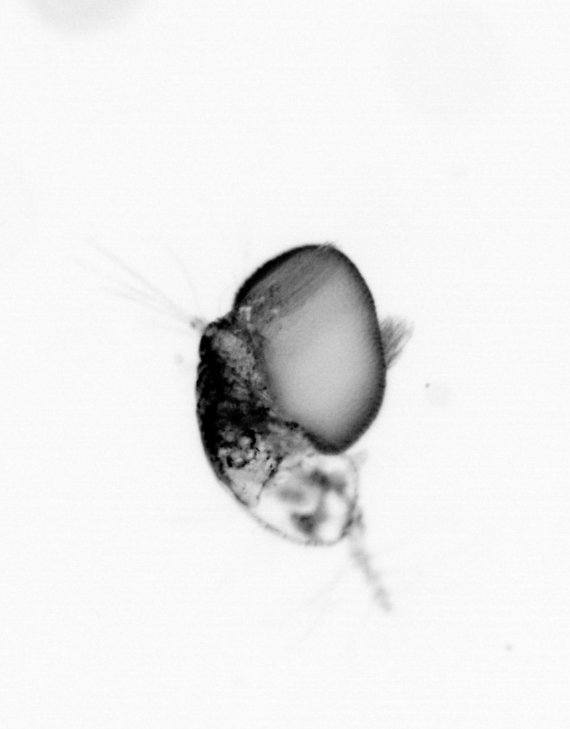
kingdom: Animalia
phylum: Arthropoda
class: Copepoda
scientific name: Copepoda
